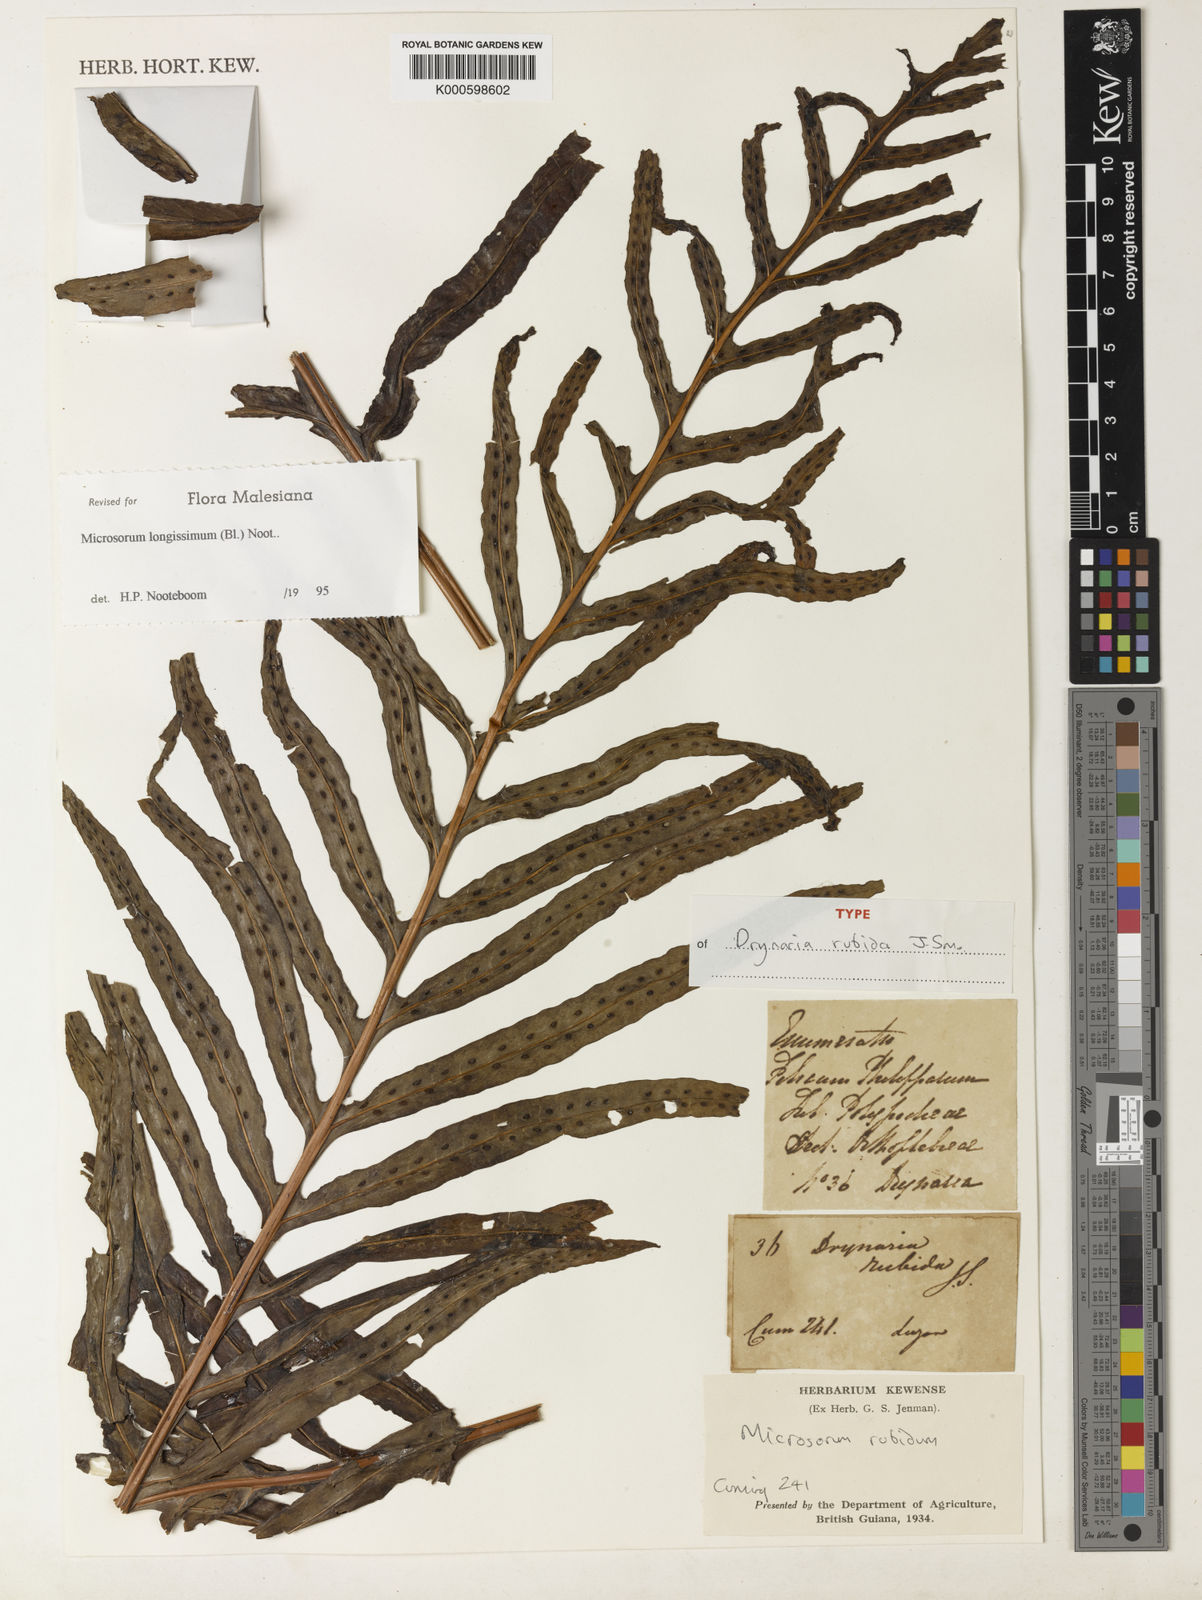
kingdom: Plantae
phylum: Tracheophyta
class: Polypodiopsida
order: Polypodiales
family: Polypodiaceae
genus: Leptochilus
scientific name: Leptochilus longissimus
